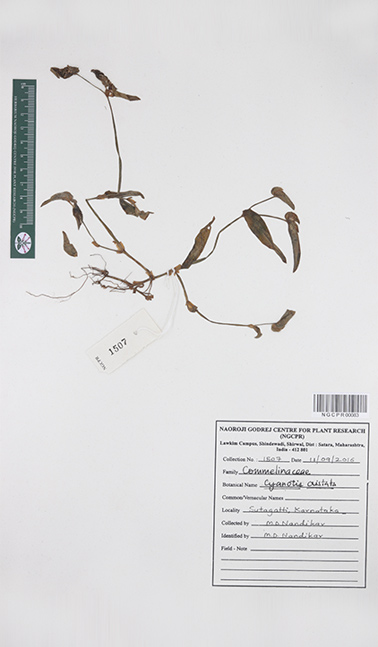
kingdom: Plantae
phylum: Tracheophyta
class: Liliopsida
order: Commelinales
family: Commelinaceae
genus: Cyanotis
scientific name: Cyanotis cristata
